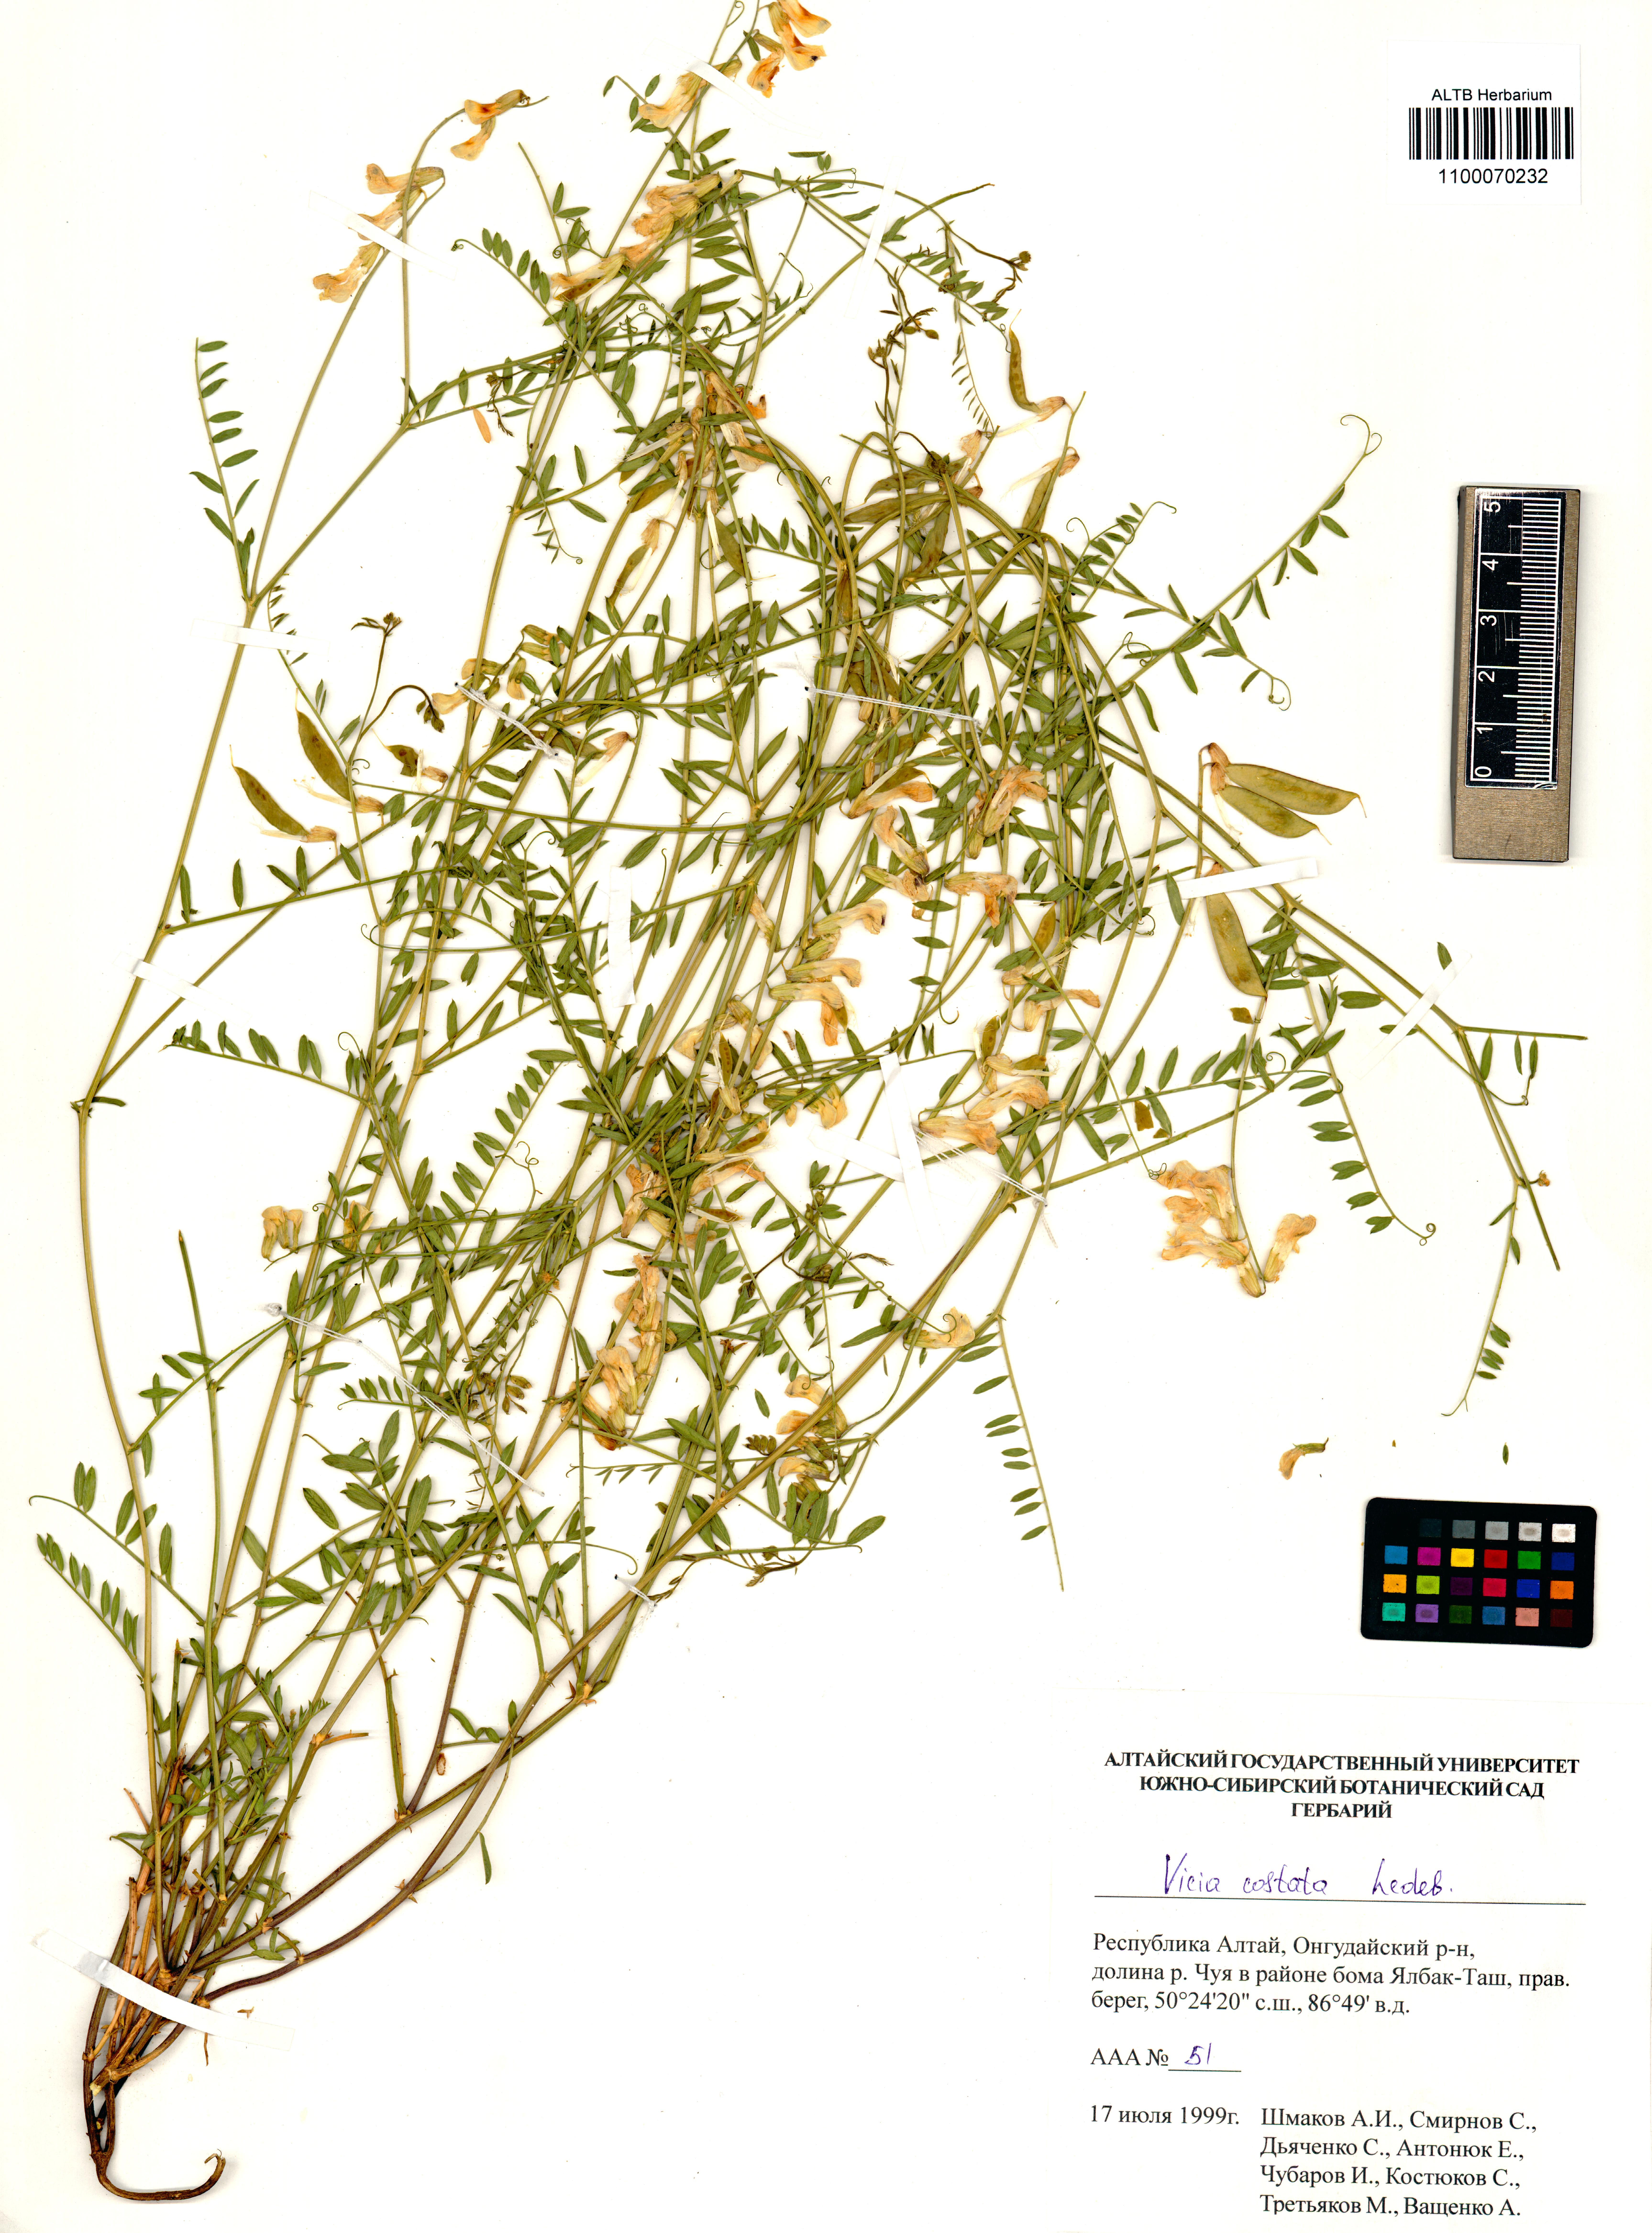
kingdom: Plantae
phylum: Tracheophyta
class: Magnoliopsida
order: Fabales
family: Fabaceae
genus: Vicia
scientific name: Vicia costata
